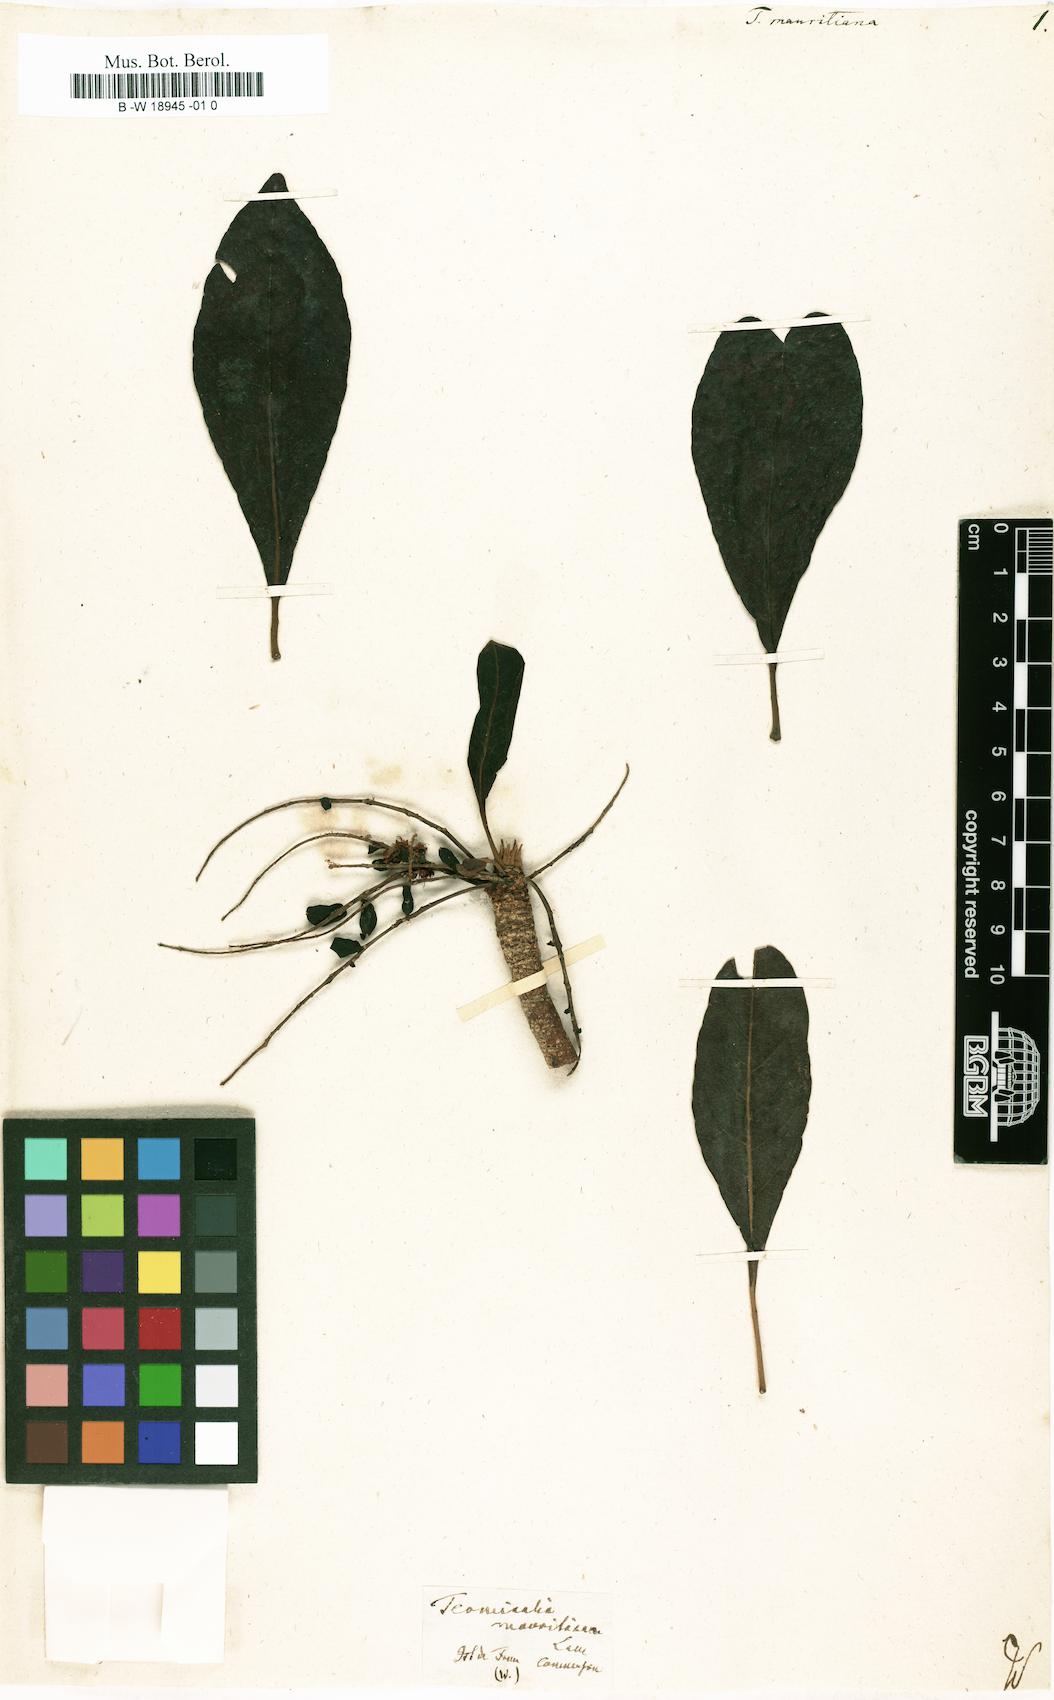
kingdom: Plantae
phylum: Tracheophyta
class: Magnoliopsida
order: Myrtales
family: Combretaceae
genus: Terminalia
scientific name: Terminalia
